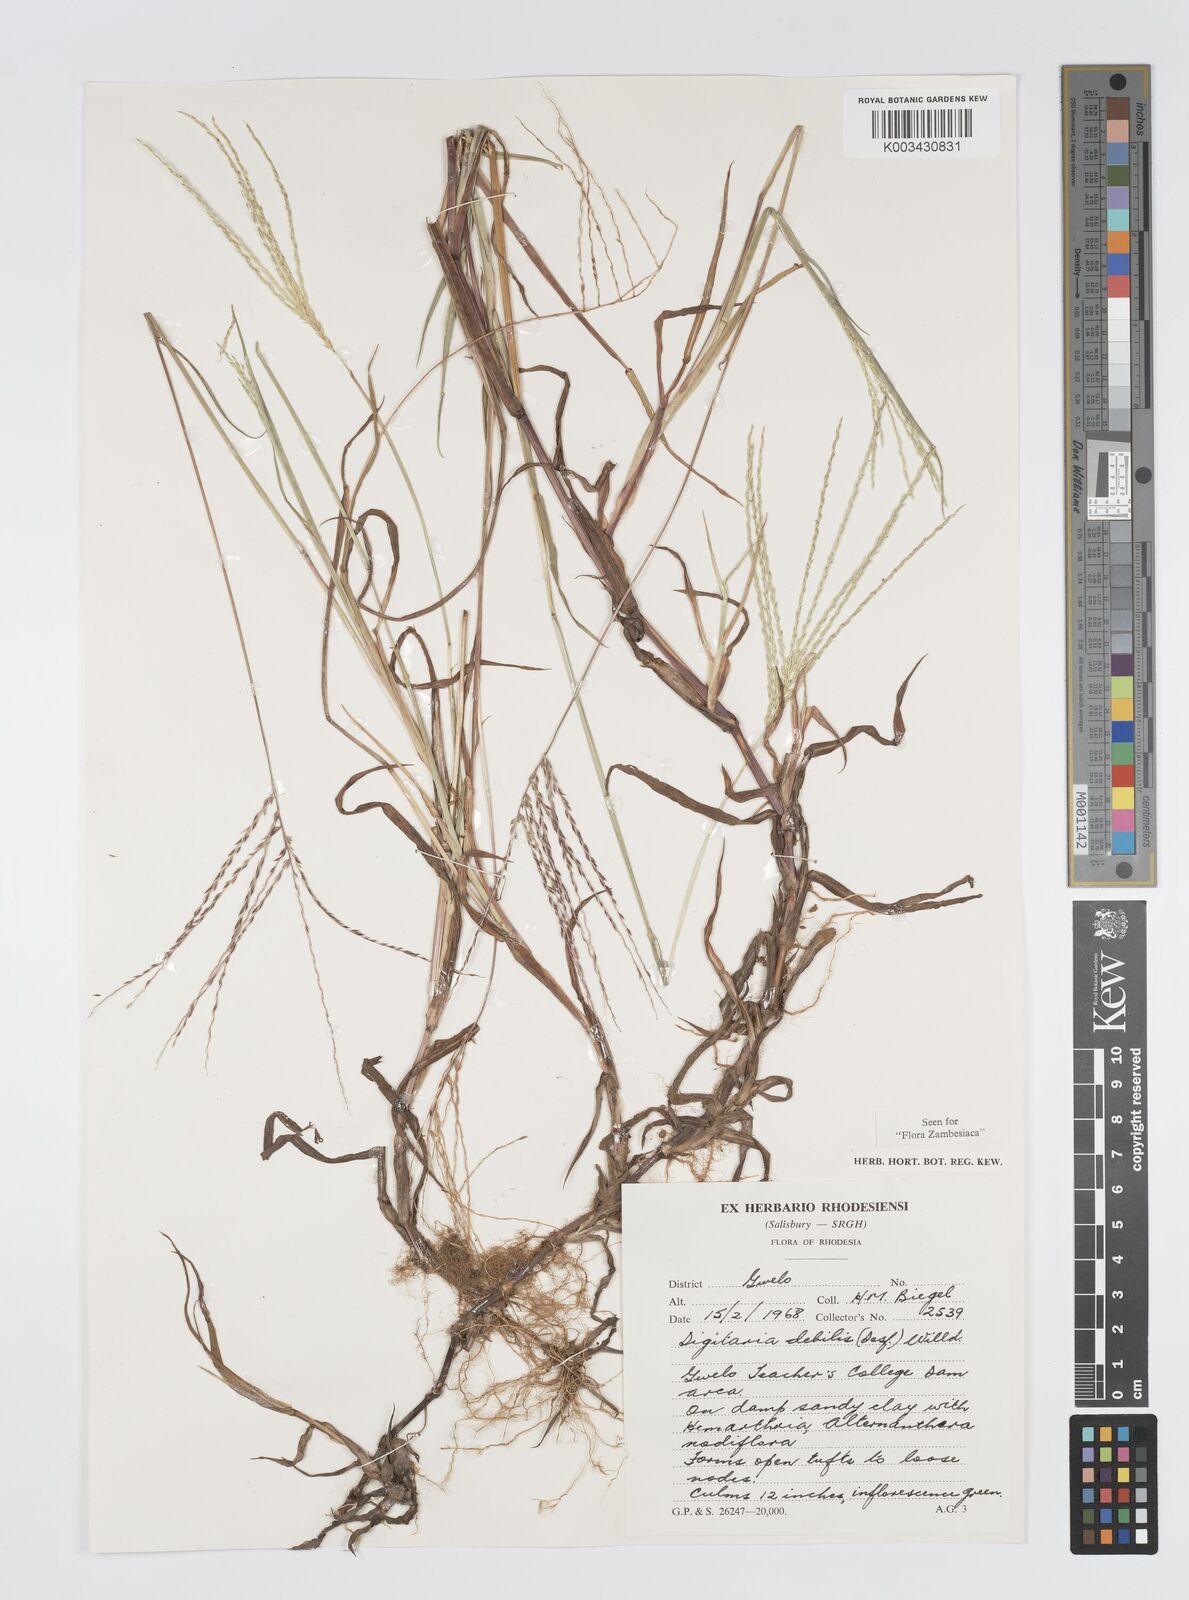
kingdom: Plantae
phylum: Tracheophyta
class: Liliopsida
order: Poales
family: Poaceae
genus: Digitaria
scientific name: Digitaria debilis
